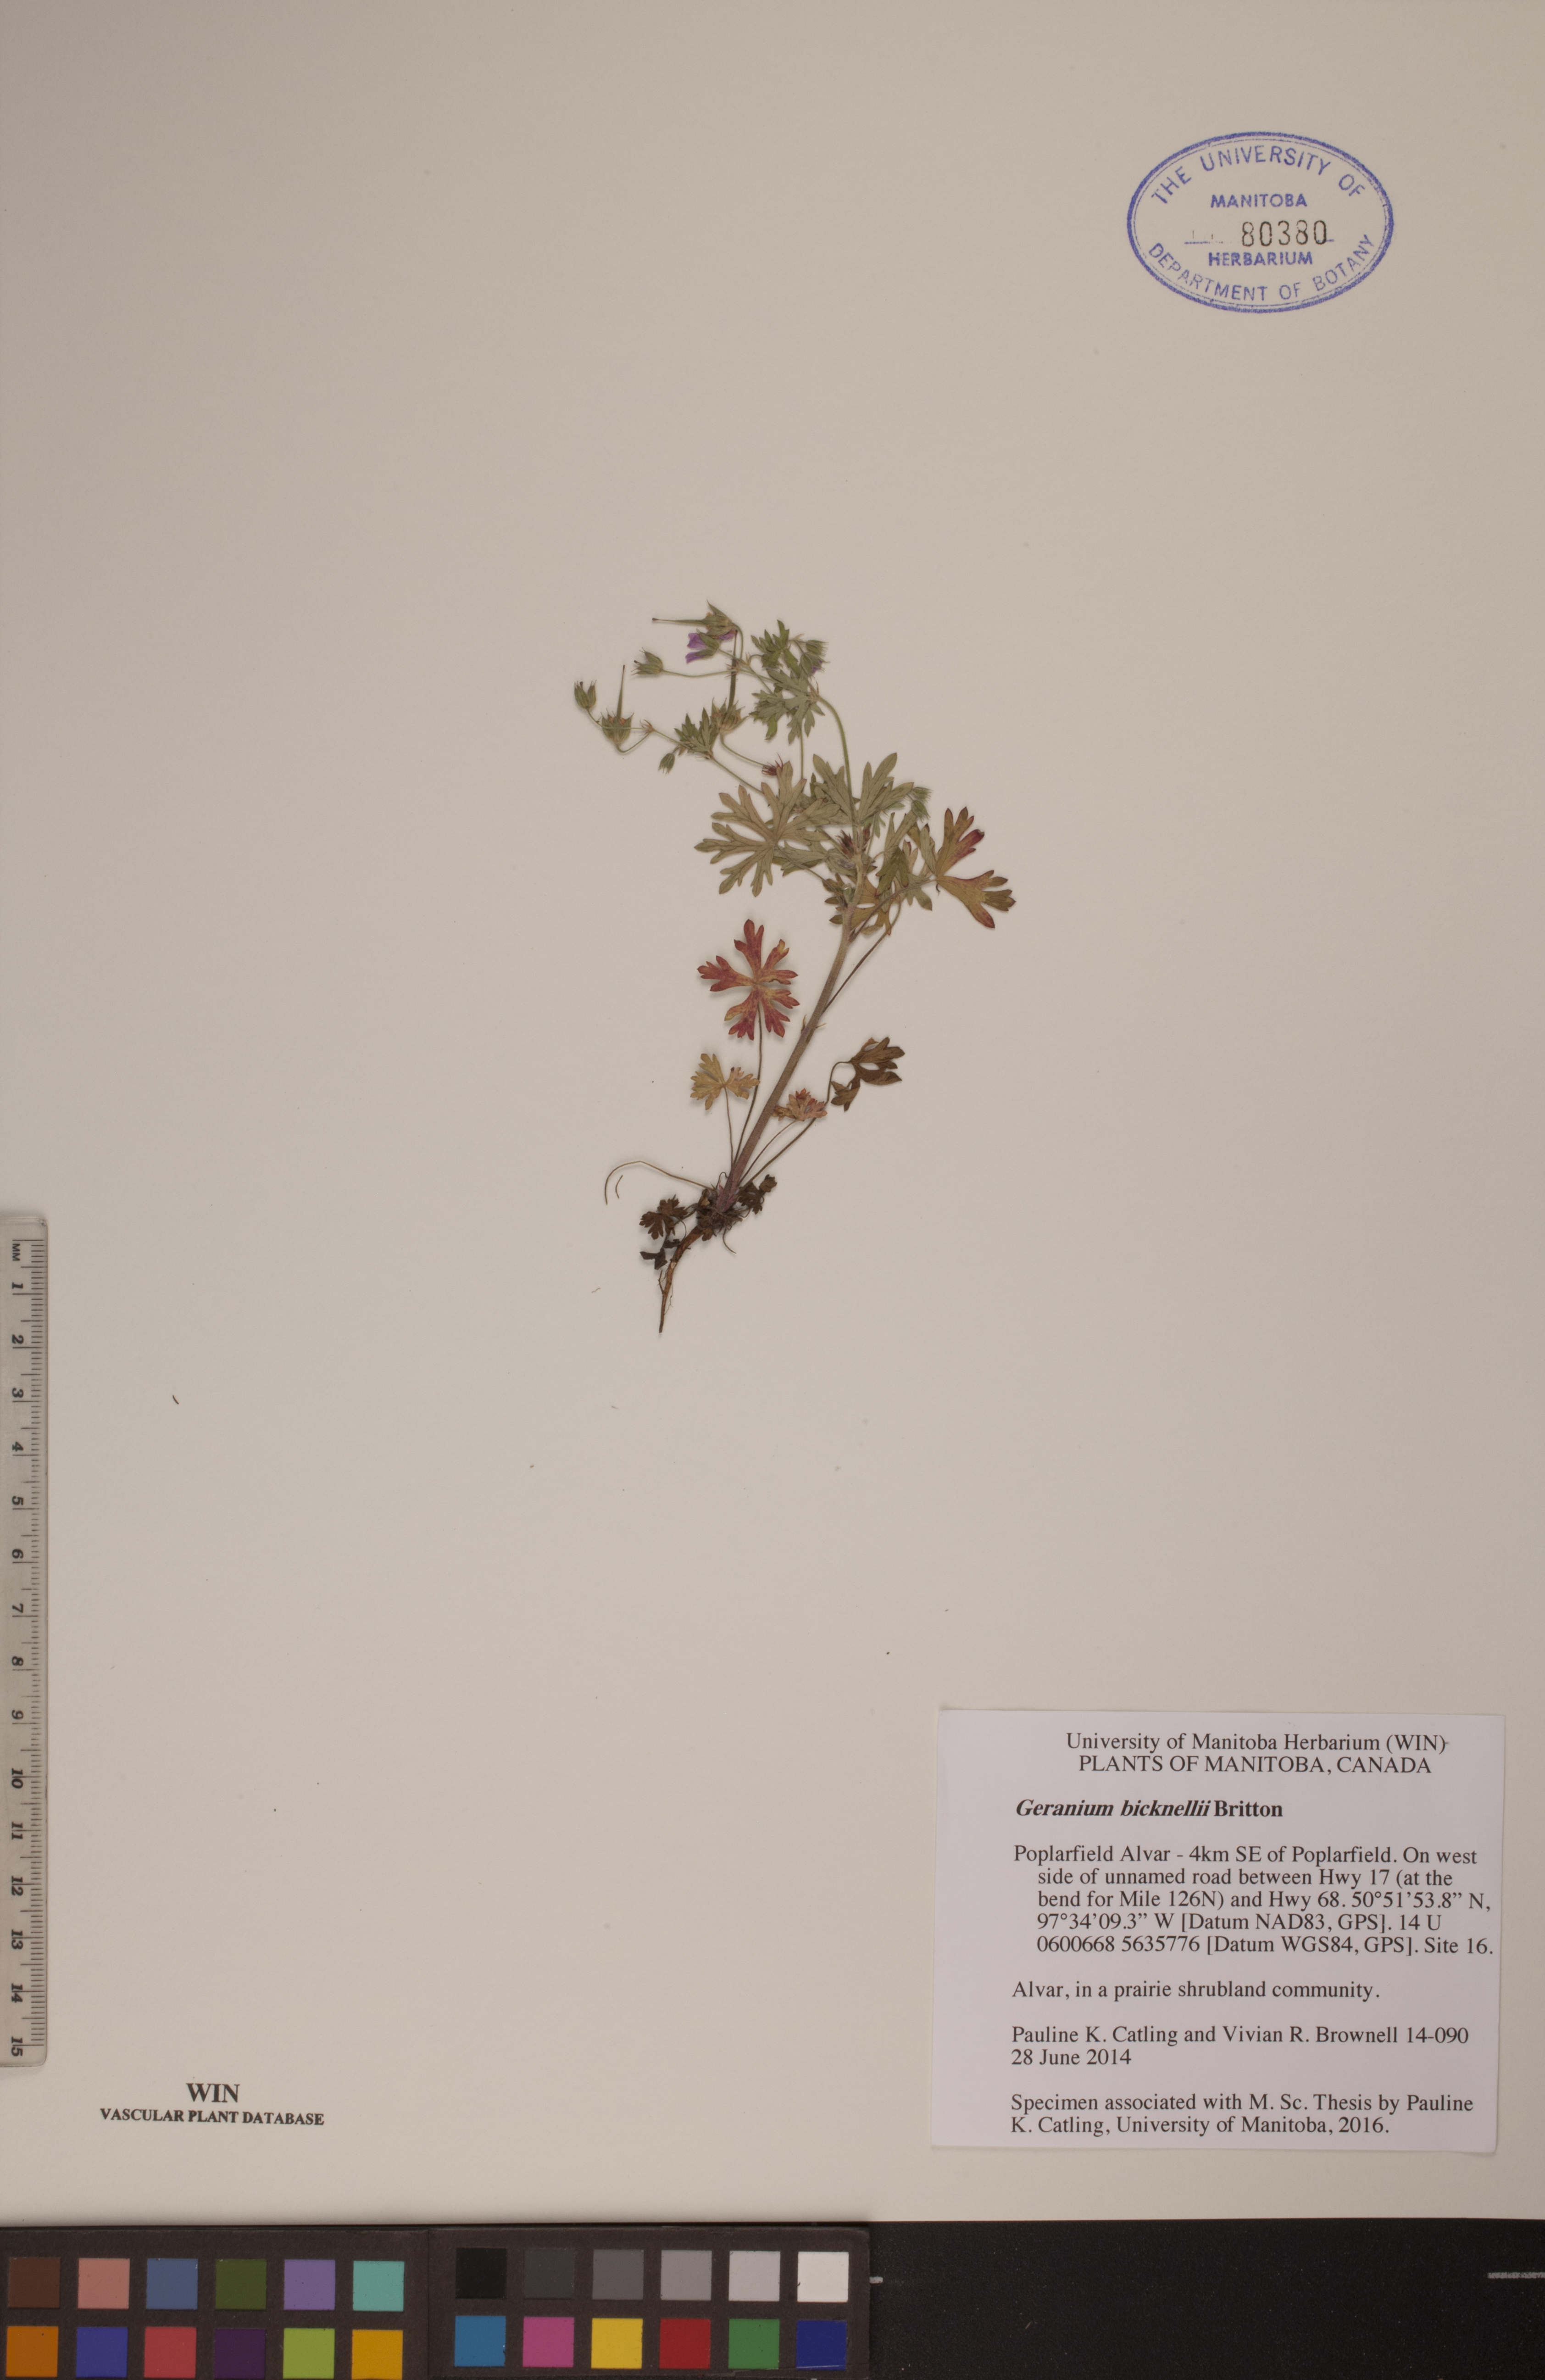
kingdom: Plantae
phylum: Tracheophyta
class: Magnoliopsida
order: Geraniales
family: Geraniaceae
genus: Geranium
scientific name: Geranium bicknellii
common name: Bicknell's cranesbill
